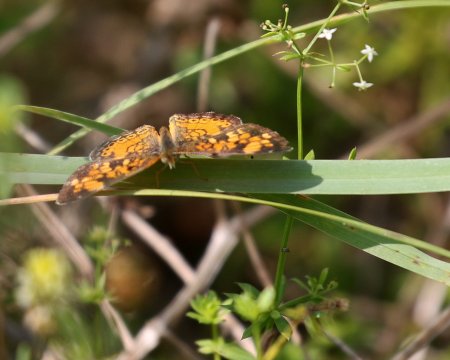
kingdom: Animalia
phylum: Arthropoda
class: Insecta
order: Lepidoptera
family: Nymphalidae
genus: Phyciodes
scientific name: Phyciodes tharos
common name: Pearl Crescent
